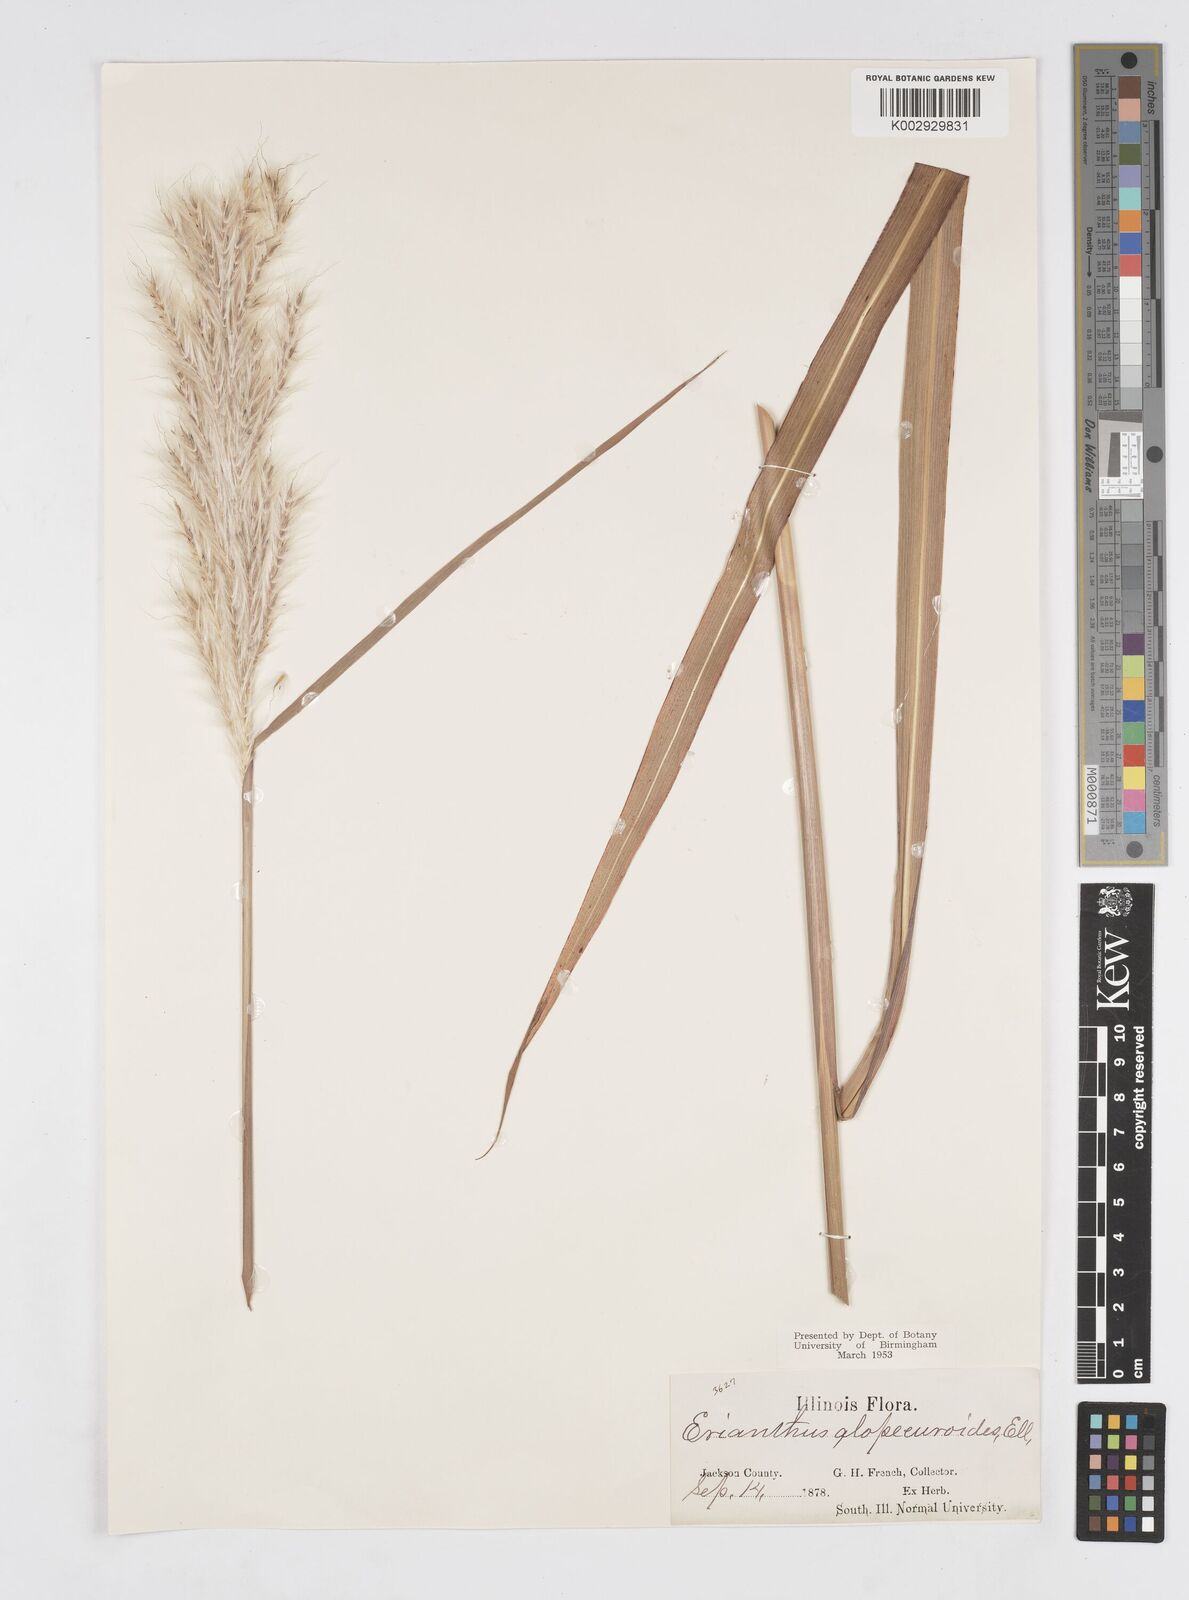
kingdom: Plantae
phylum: Tracheophyta
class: Liliopsida
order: Poales
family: Poaceae
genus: Erianthus
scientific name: Erianthus alopecuroides
